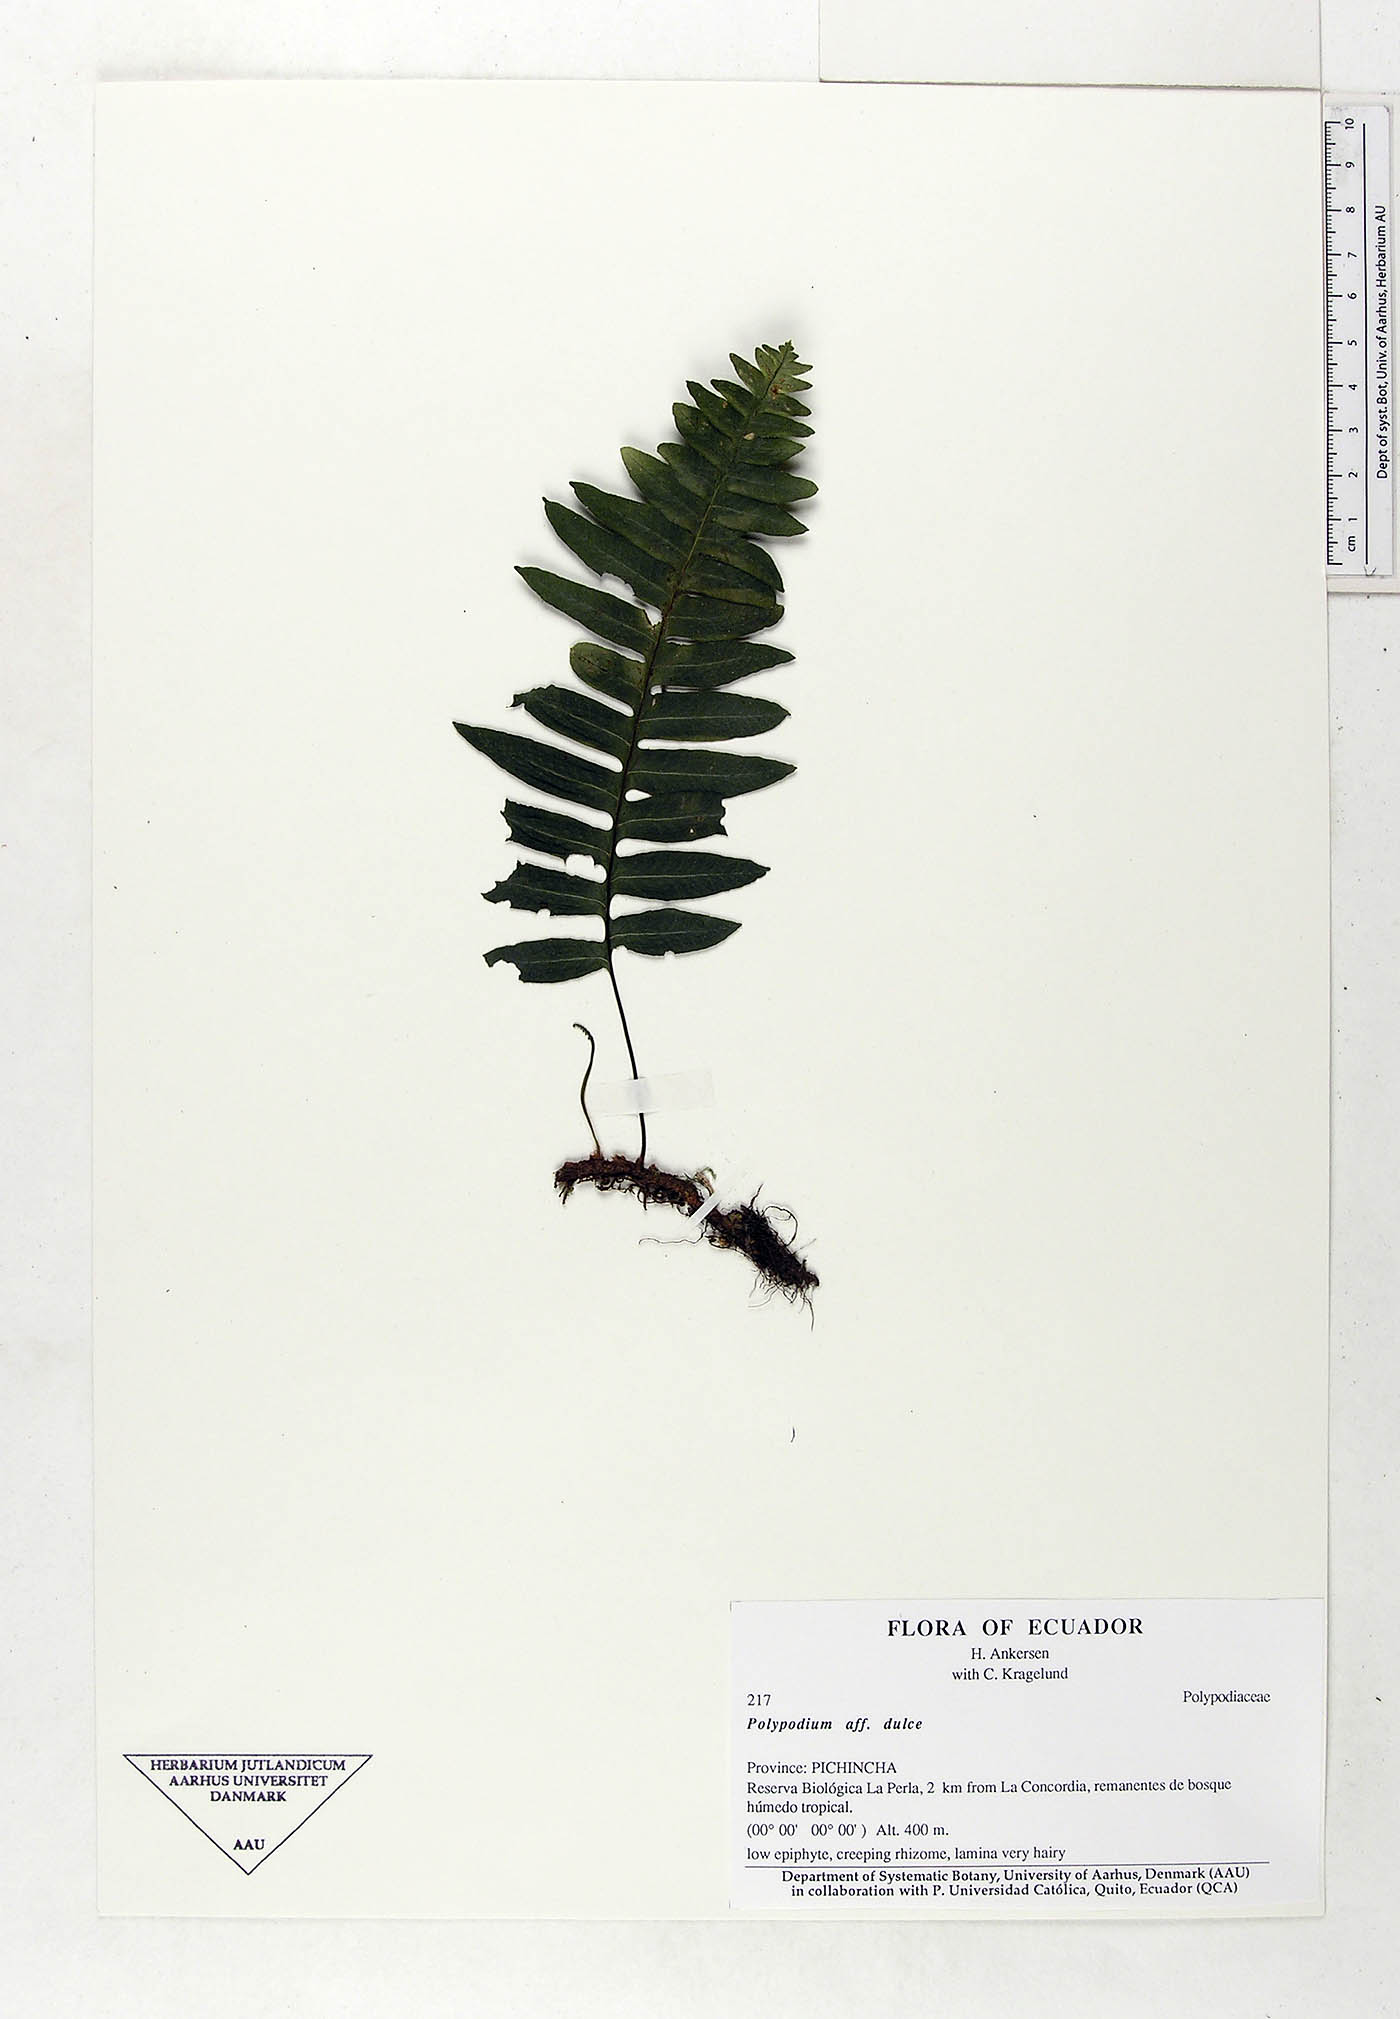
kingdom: Plantae
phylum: Tracheophyta
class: Polypodiopsida
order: Polypodiales
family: Polypodiaceae
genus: Pecluma
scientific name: Pecluma dulcis
